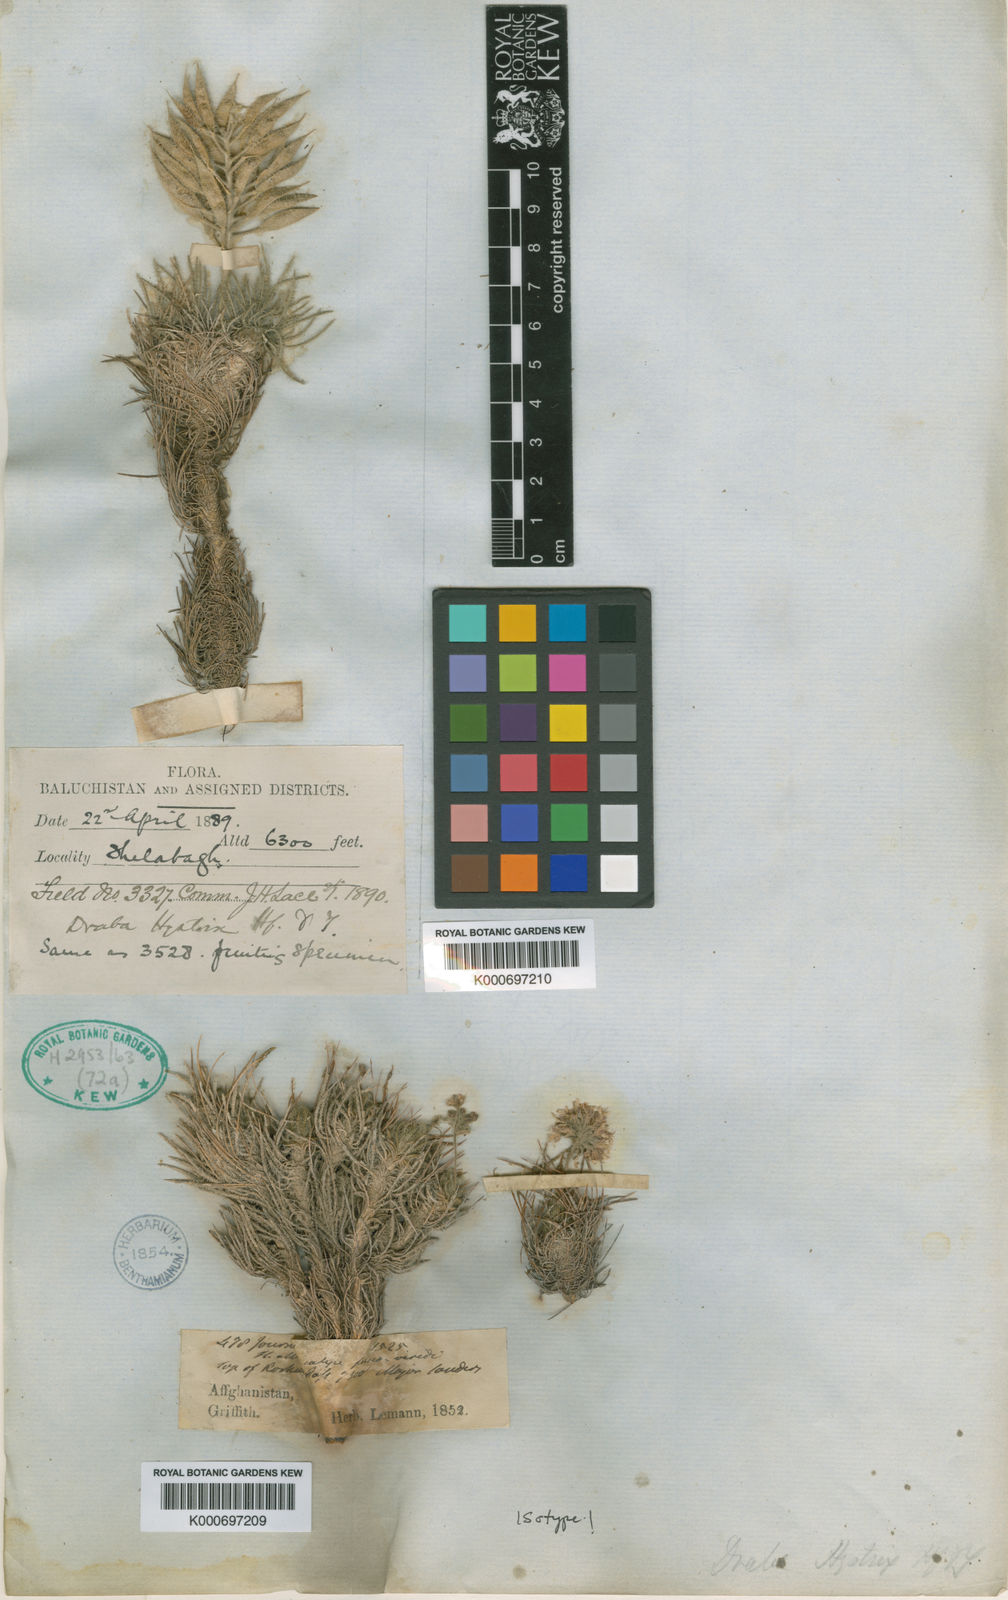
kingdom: Plantae
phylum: Tracheophyta
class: Magnoliopsida
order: Brassicales
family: Brassicaceae
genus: Pseudodraba
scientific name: Pseudodraba
